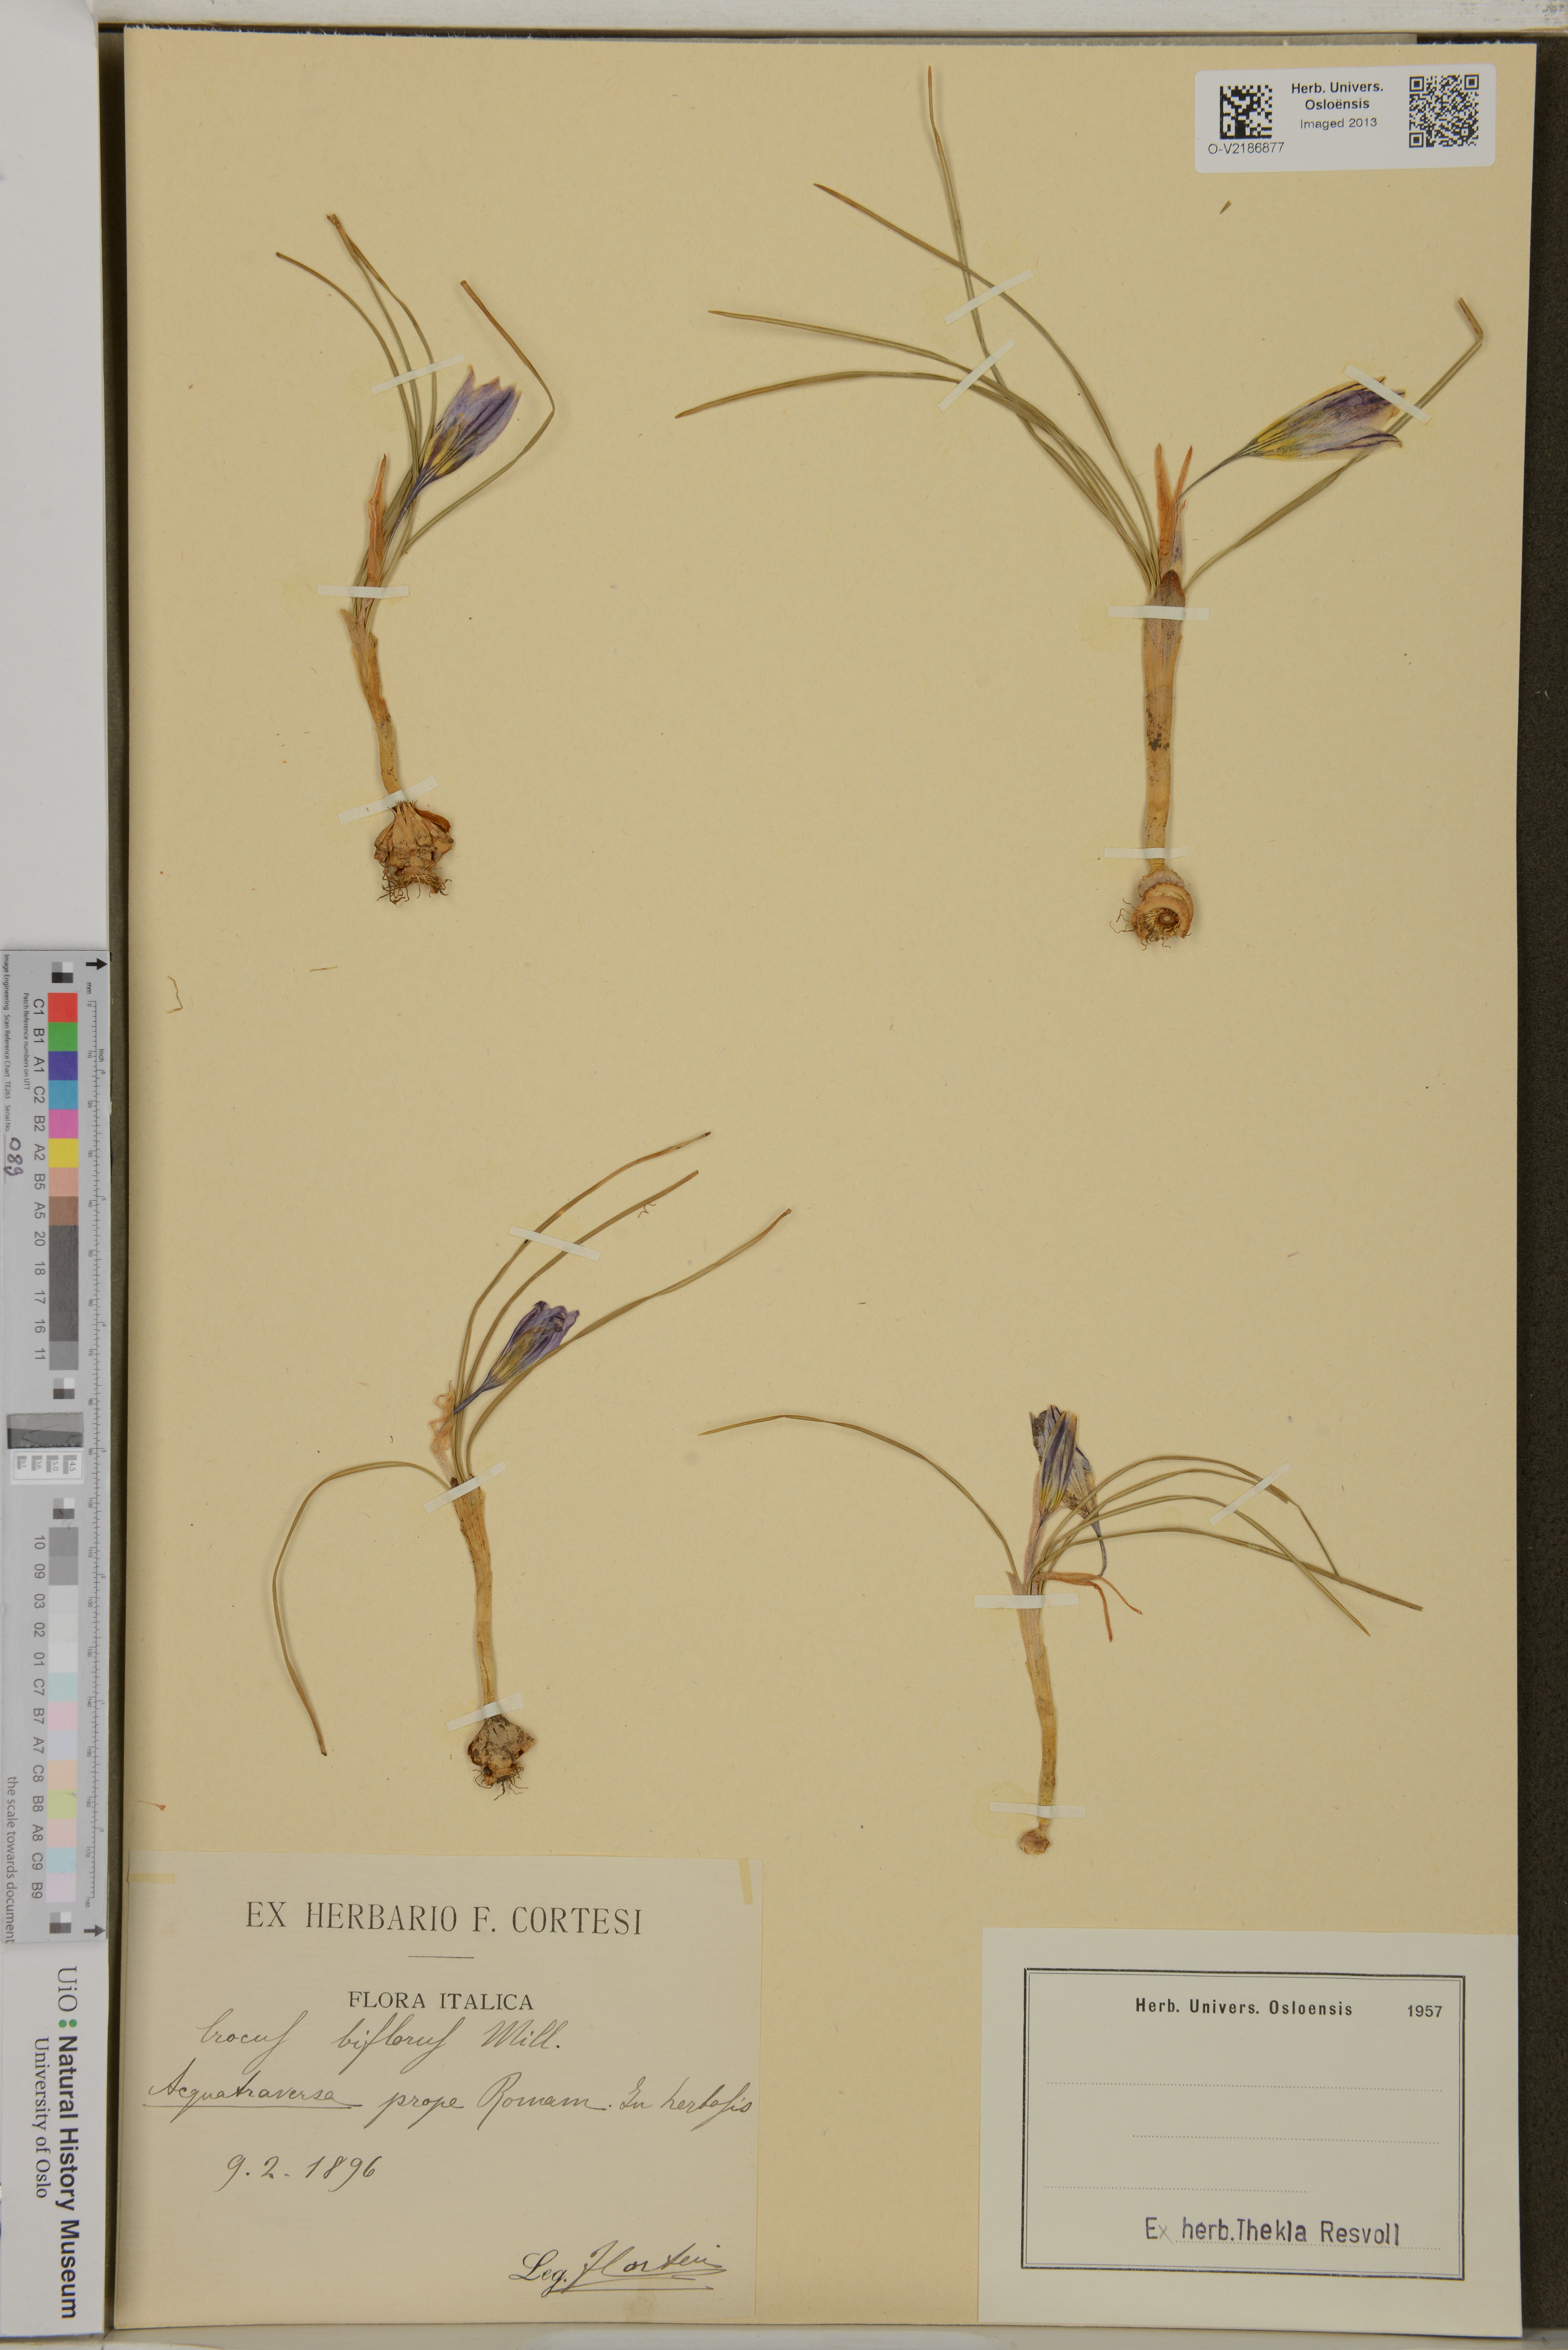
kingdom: Plantae
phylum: Tracheophyta
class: Liliopsida
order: Asparagales
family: Iridaceae
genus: Crocus
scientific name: Crocus biflorus
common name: Silvery crocus
